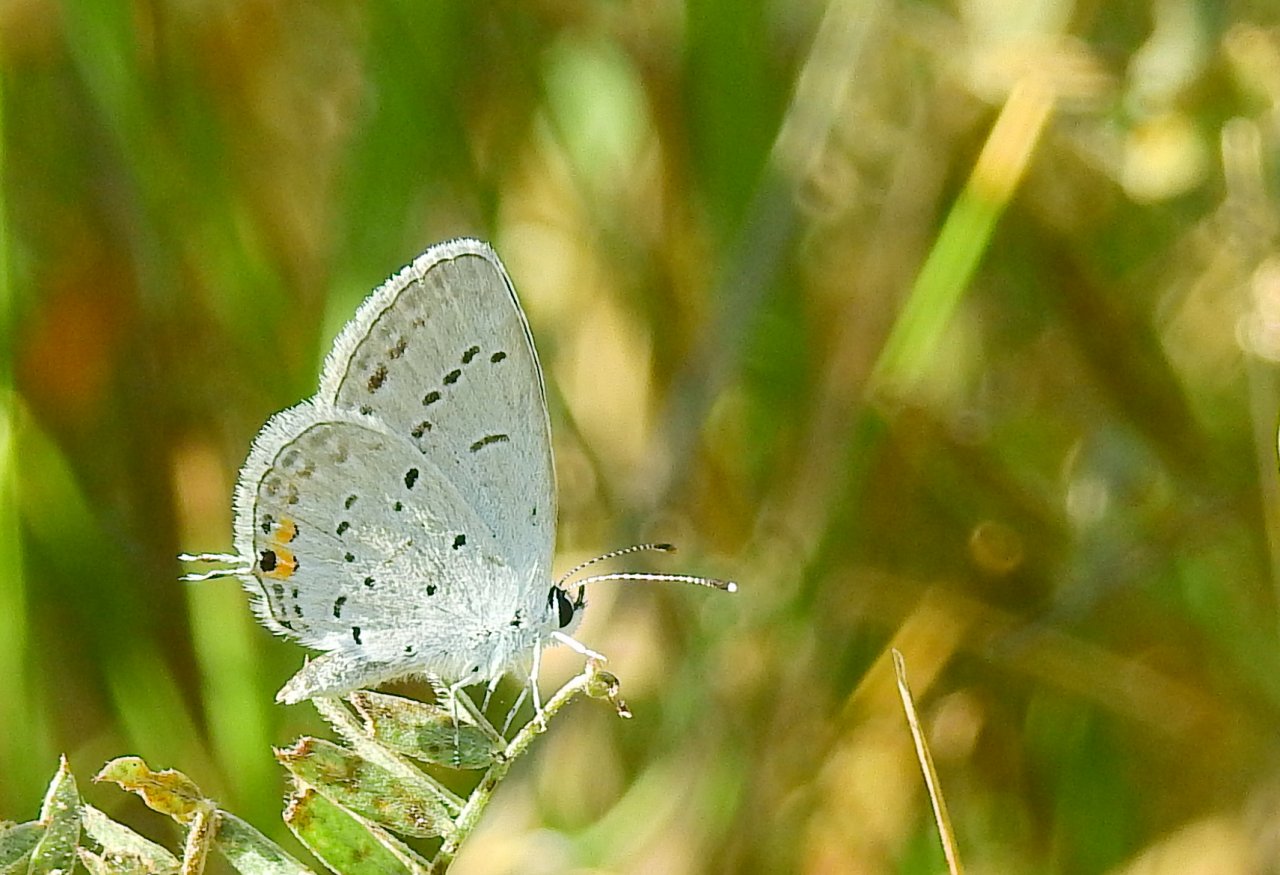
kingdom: Animalia
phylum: Arthropoda
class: Insecta
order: Lepidoptera
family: Lycaenidae
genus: Elkalyce
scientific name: Elkalyce comyntas
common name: Eastern Tailed-Blue
